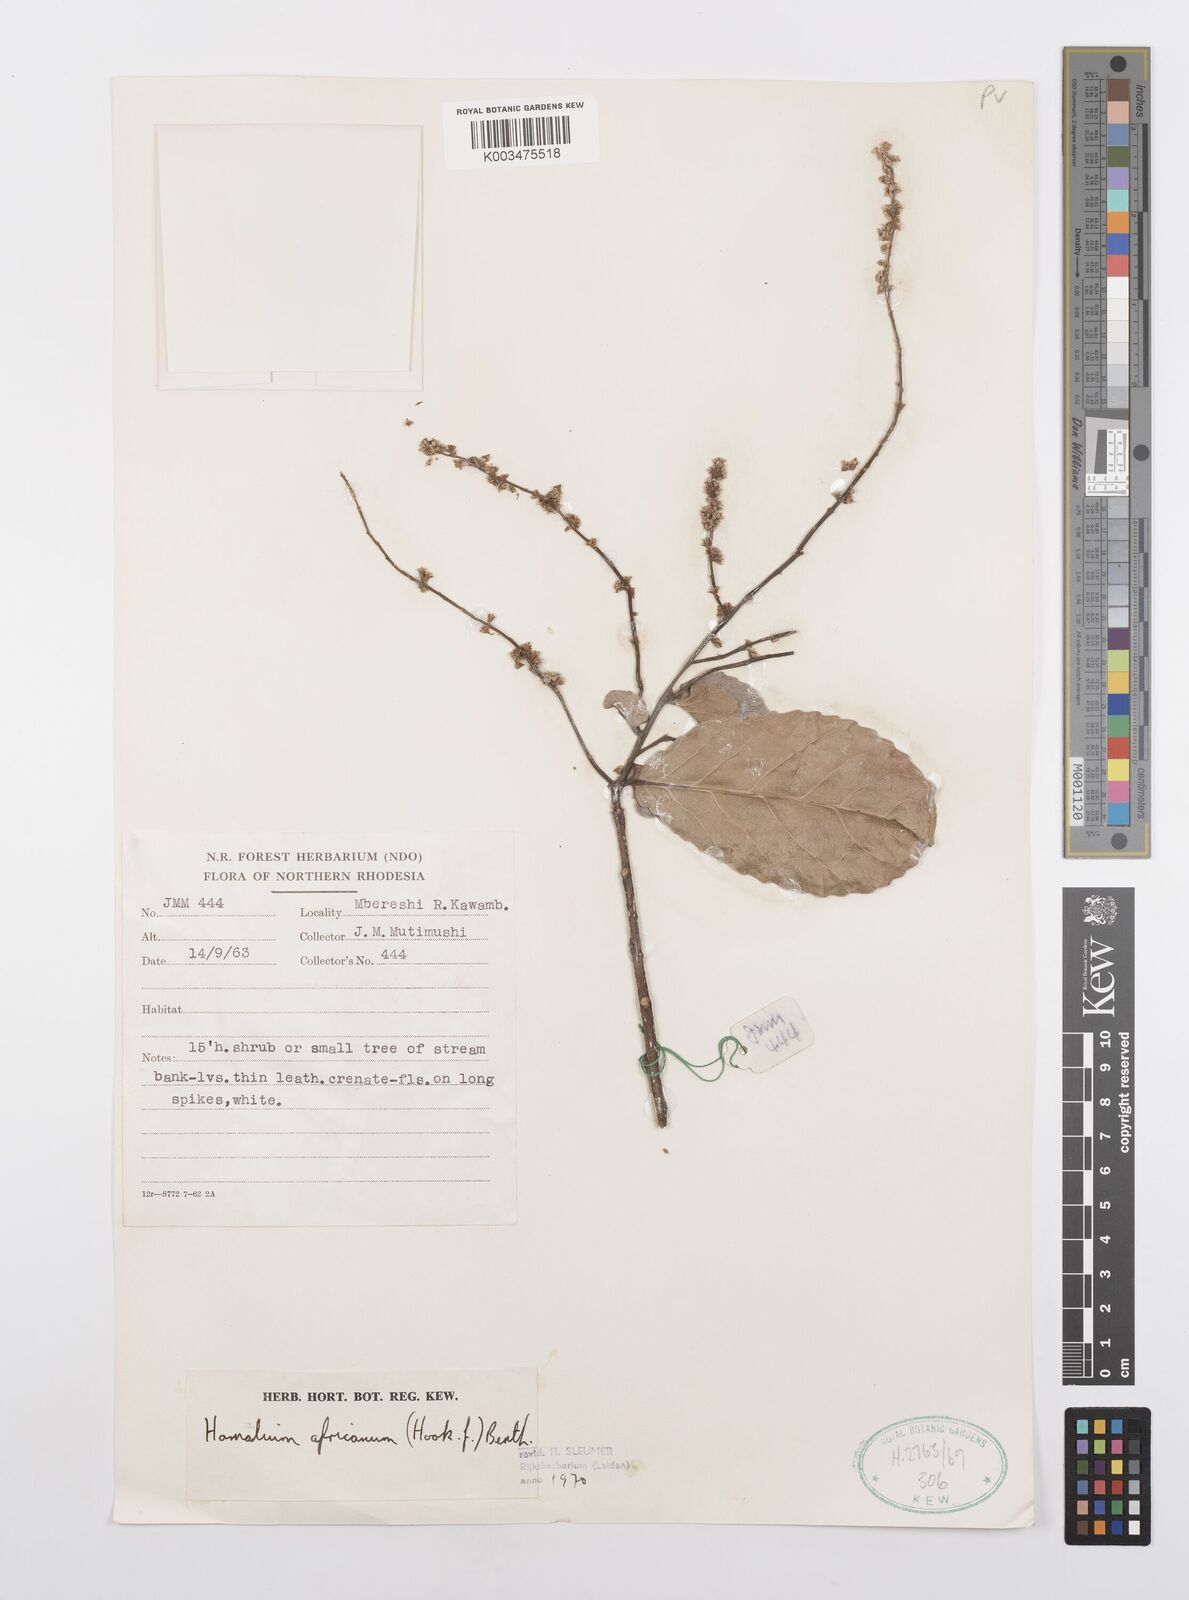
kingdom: Plantae
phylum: Tracheophyta
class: Magnoliopsida
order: Malpighiales
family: Salicaceae
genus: Homalium
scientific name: Homalium africanum
